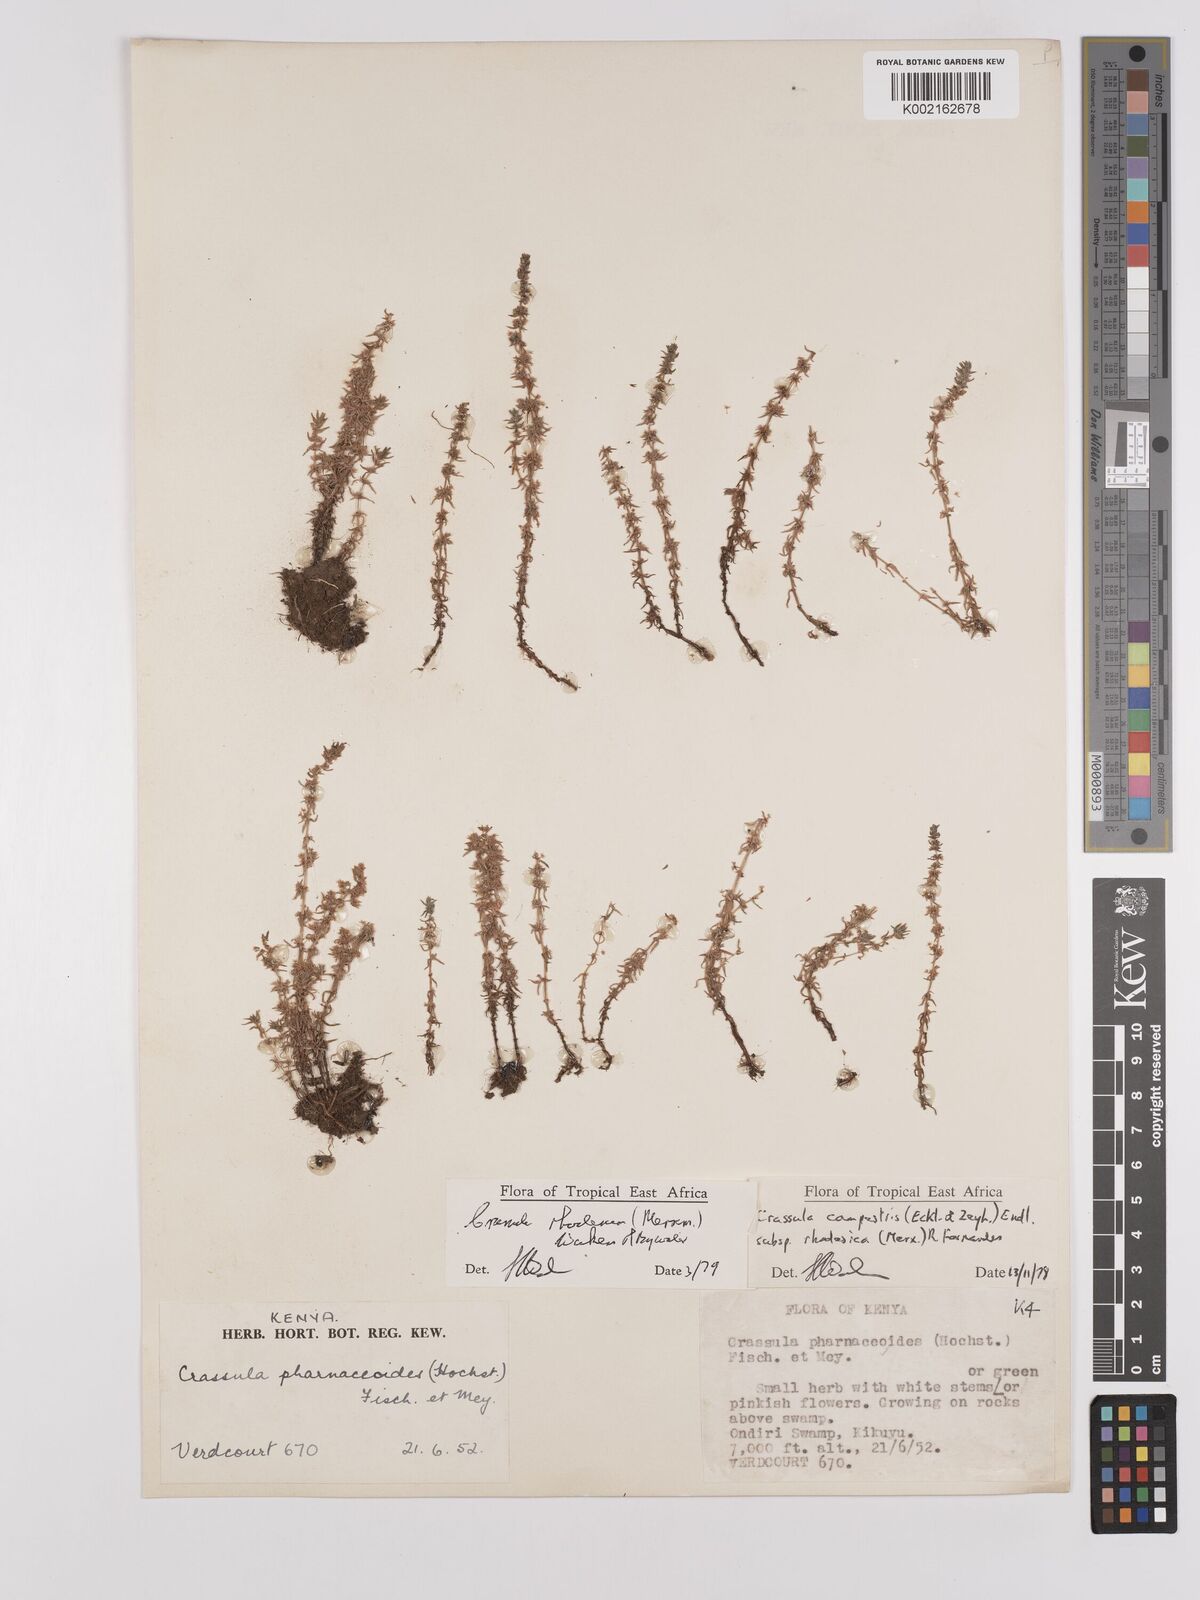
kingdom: Plantae
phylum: Tracheophyta
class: Magnoliopsida
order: Saxifragales
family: Crassulaceae
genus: Crassula
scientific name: Crassula rhodesica
